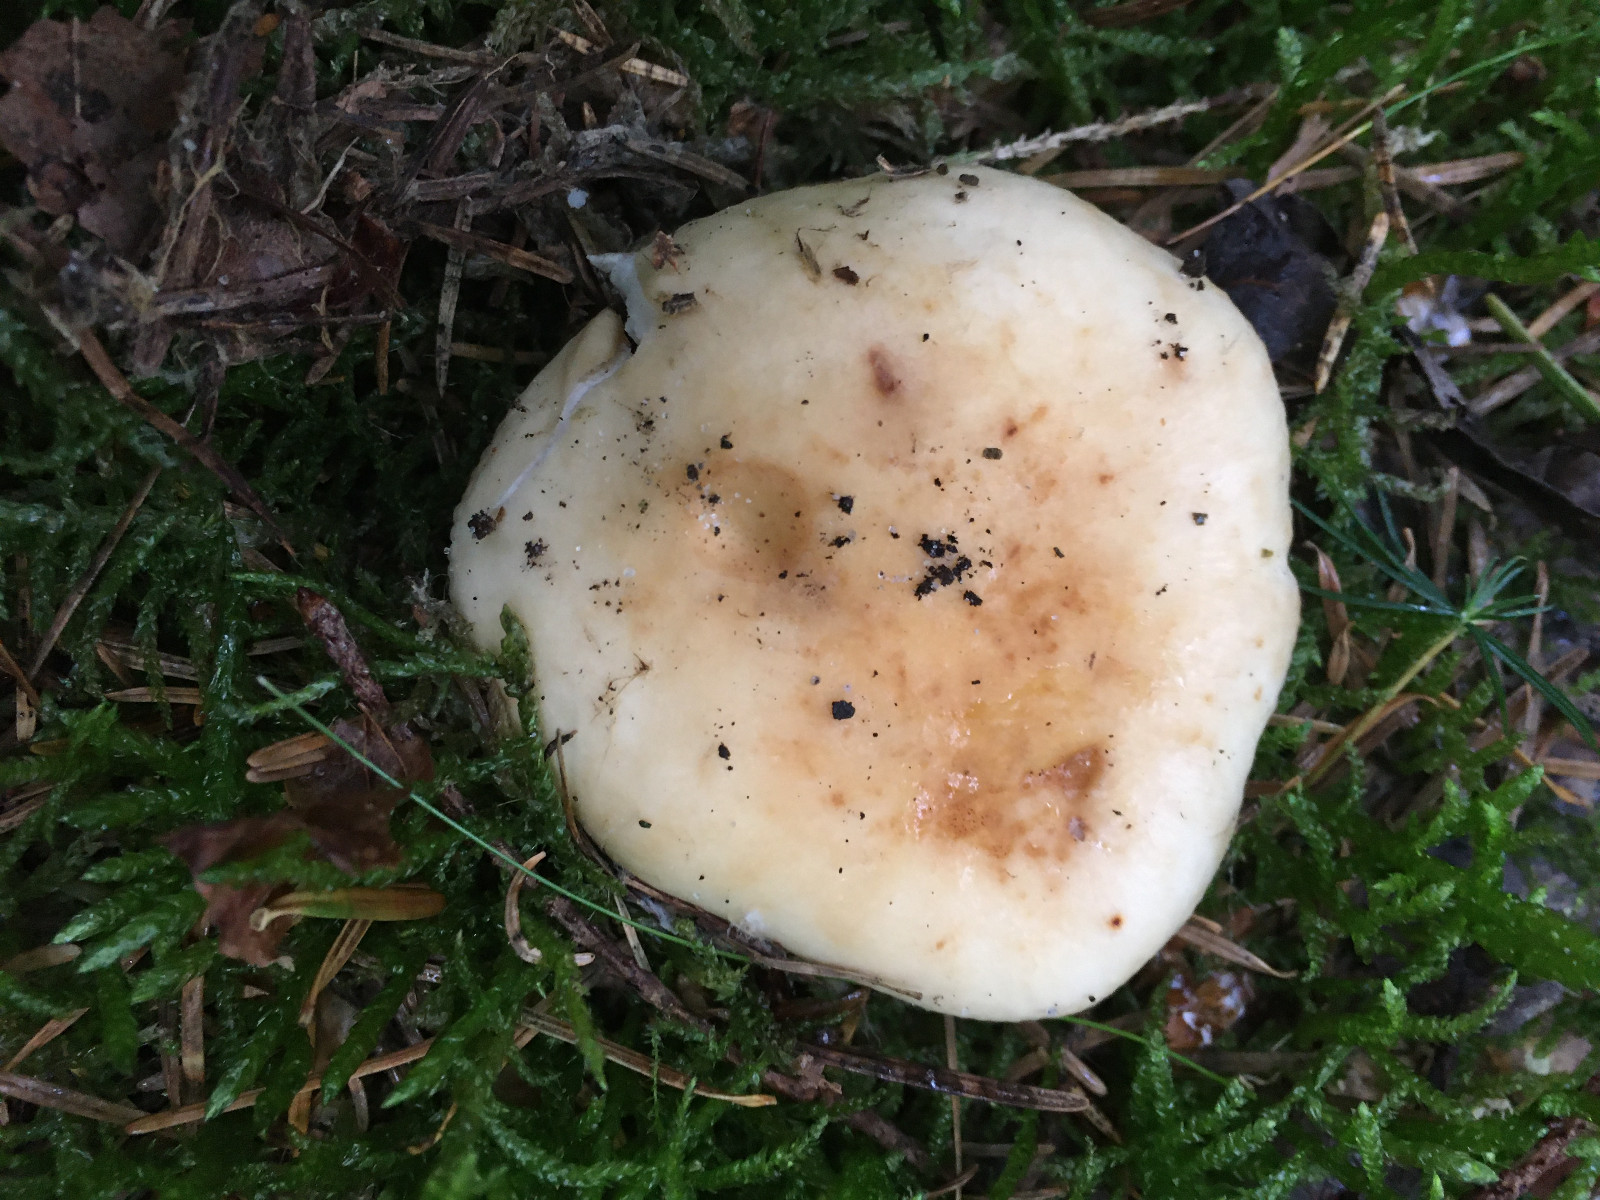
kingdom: Fungi
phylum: Basidiomycota
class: Agaricomycetes
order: Russulales
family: Russulaceae
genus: Russula
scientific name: Russula fellea
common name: galde-skørhat
